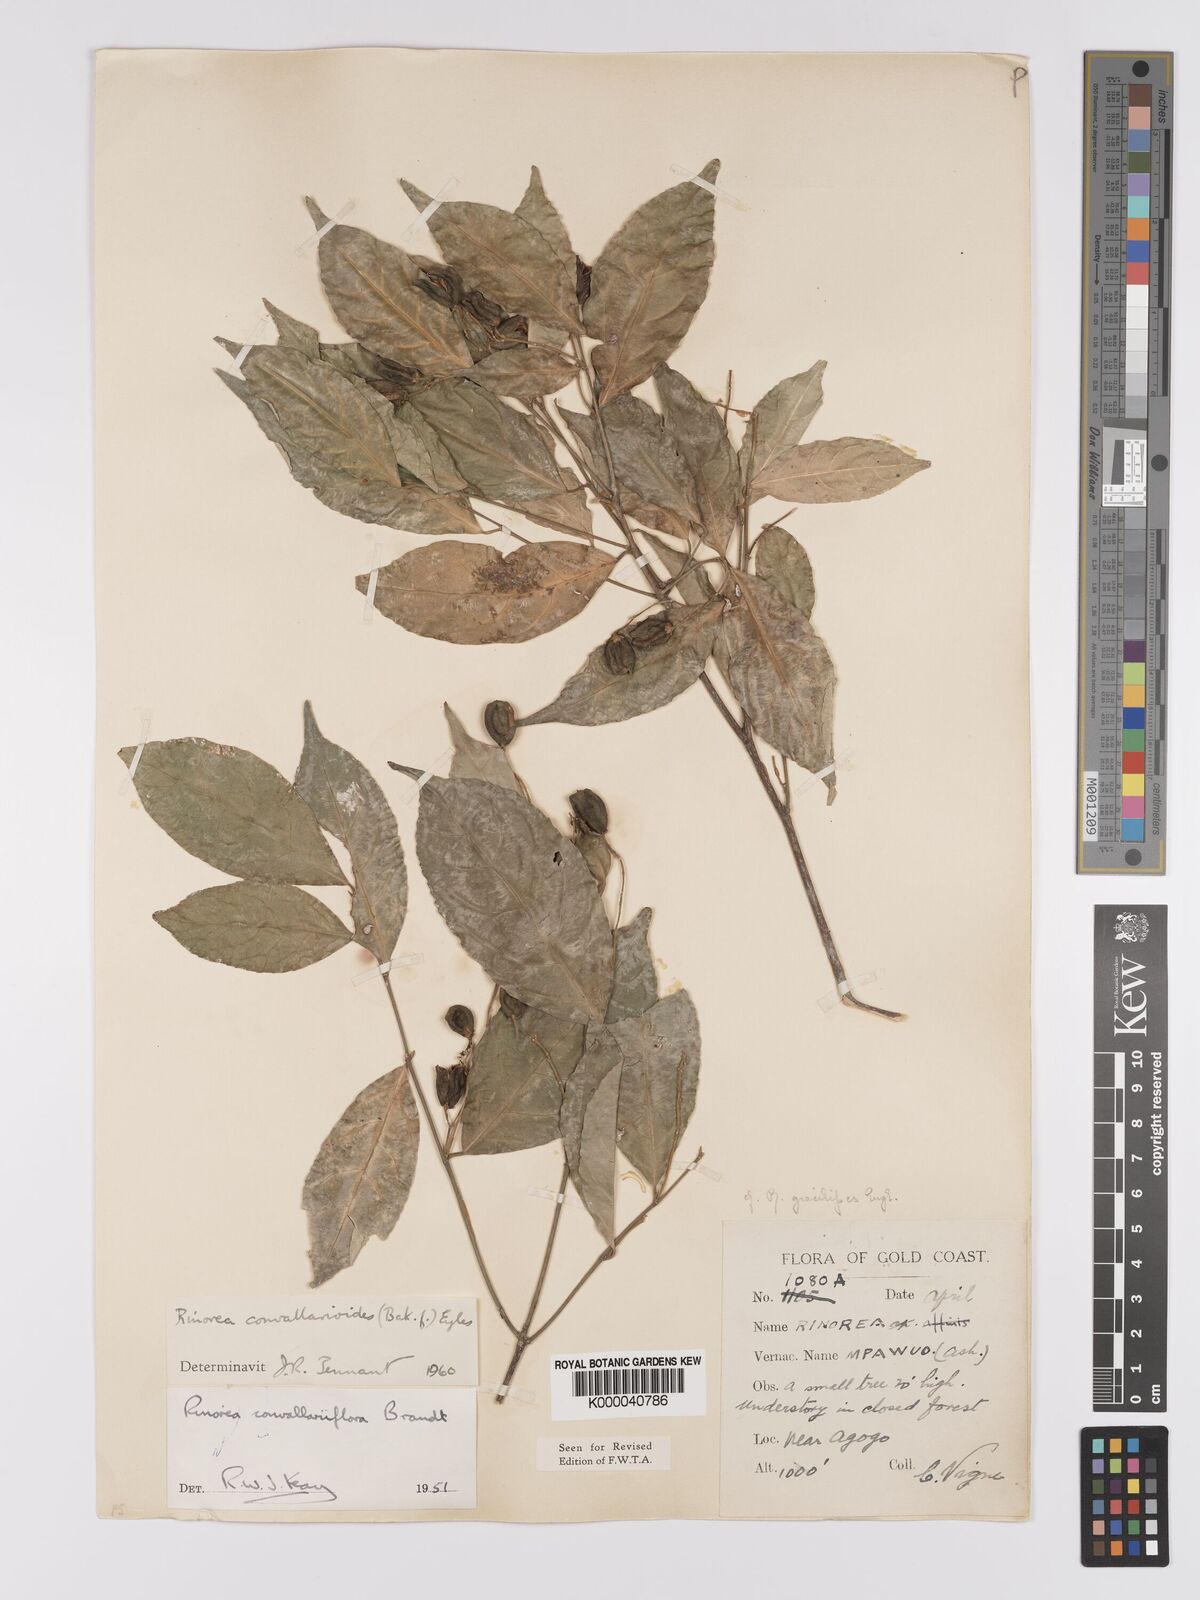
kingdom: Plantae
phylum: Tracheophyta
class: Magnoliopsida
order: Malpighiales
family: Violaceae
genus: Rinorea
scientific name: Rinorea convallarioides
